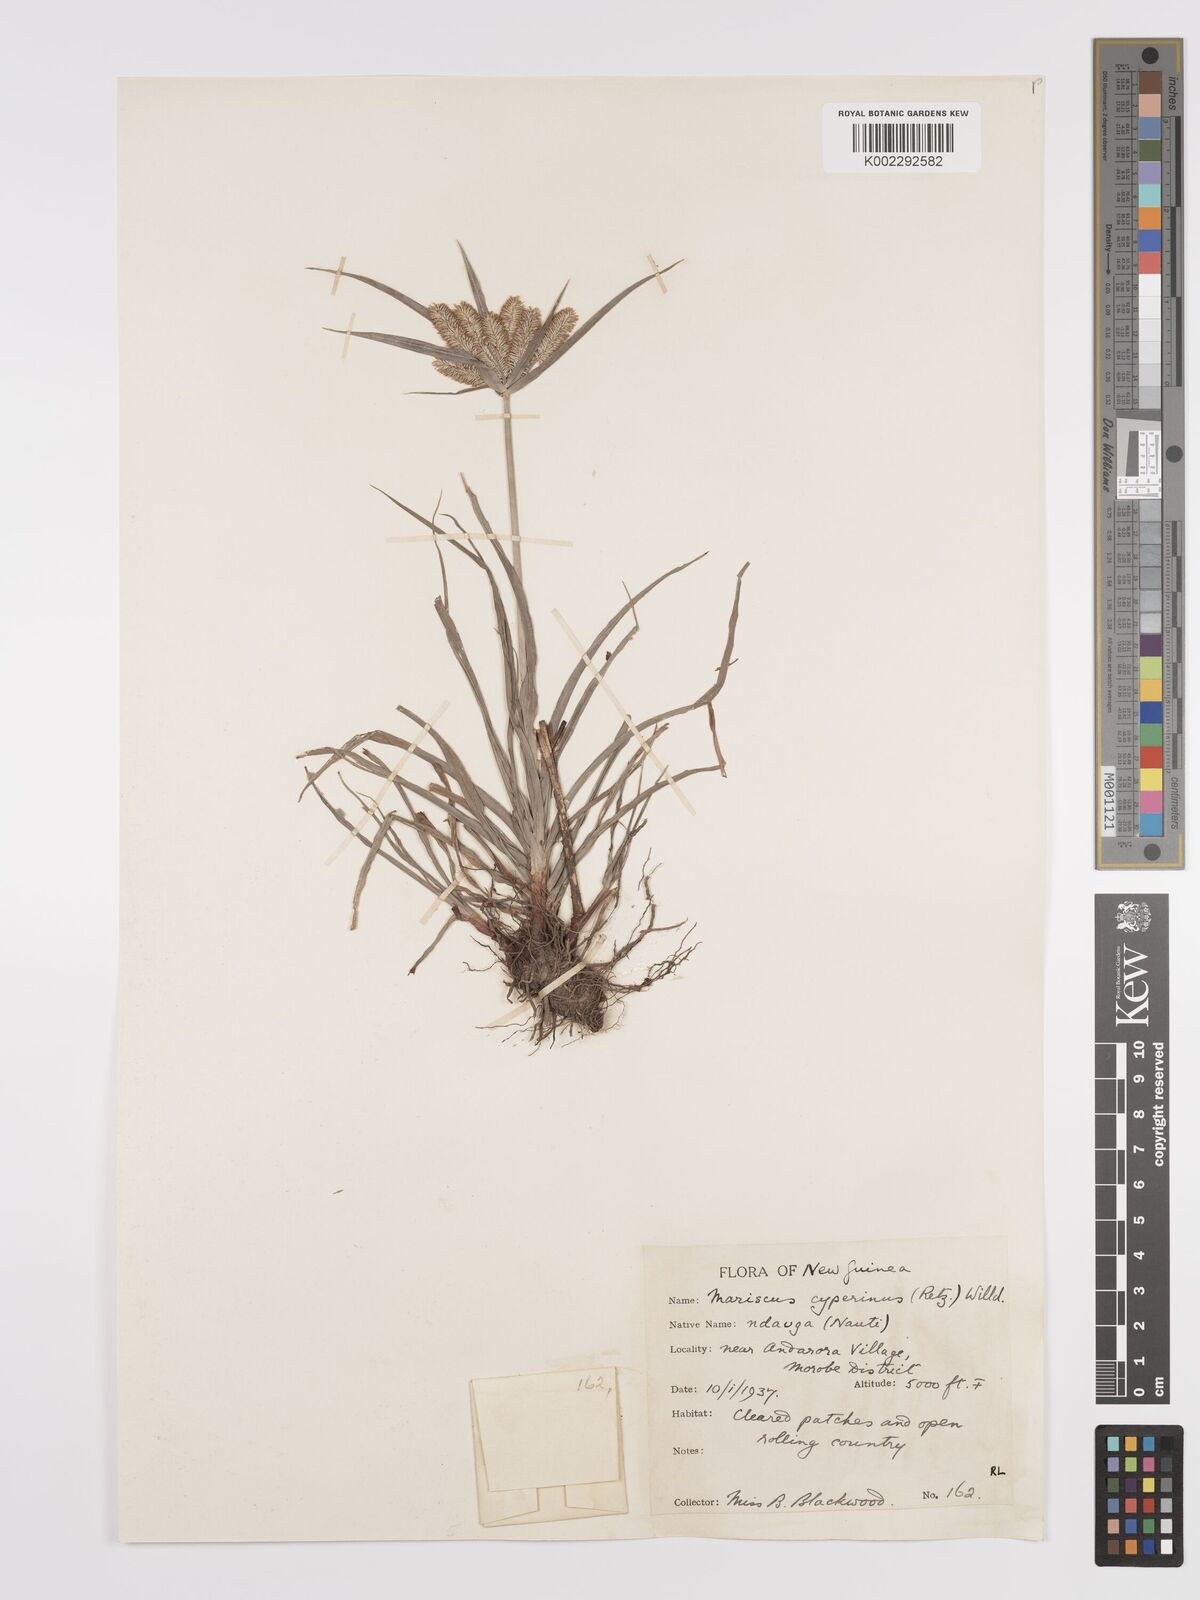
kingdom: Plantae
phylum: Tracheophyta
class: Liliopsida
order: Poales
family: Cyperaceae
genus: Cyperus
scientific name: Cyperus cyperoides
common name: Pacific island flat sedge
